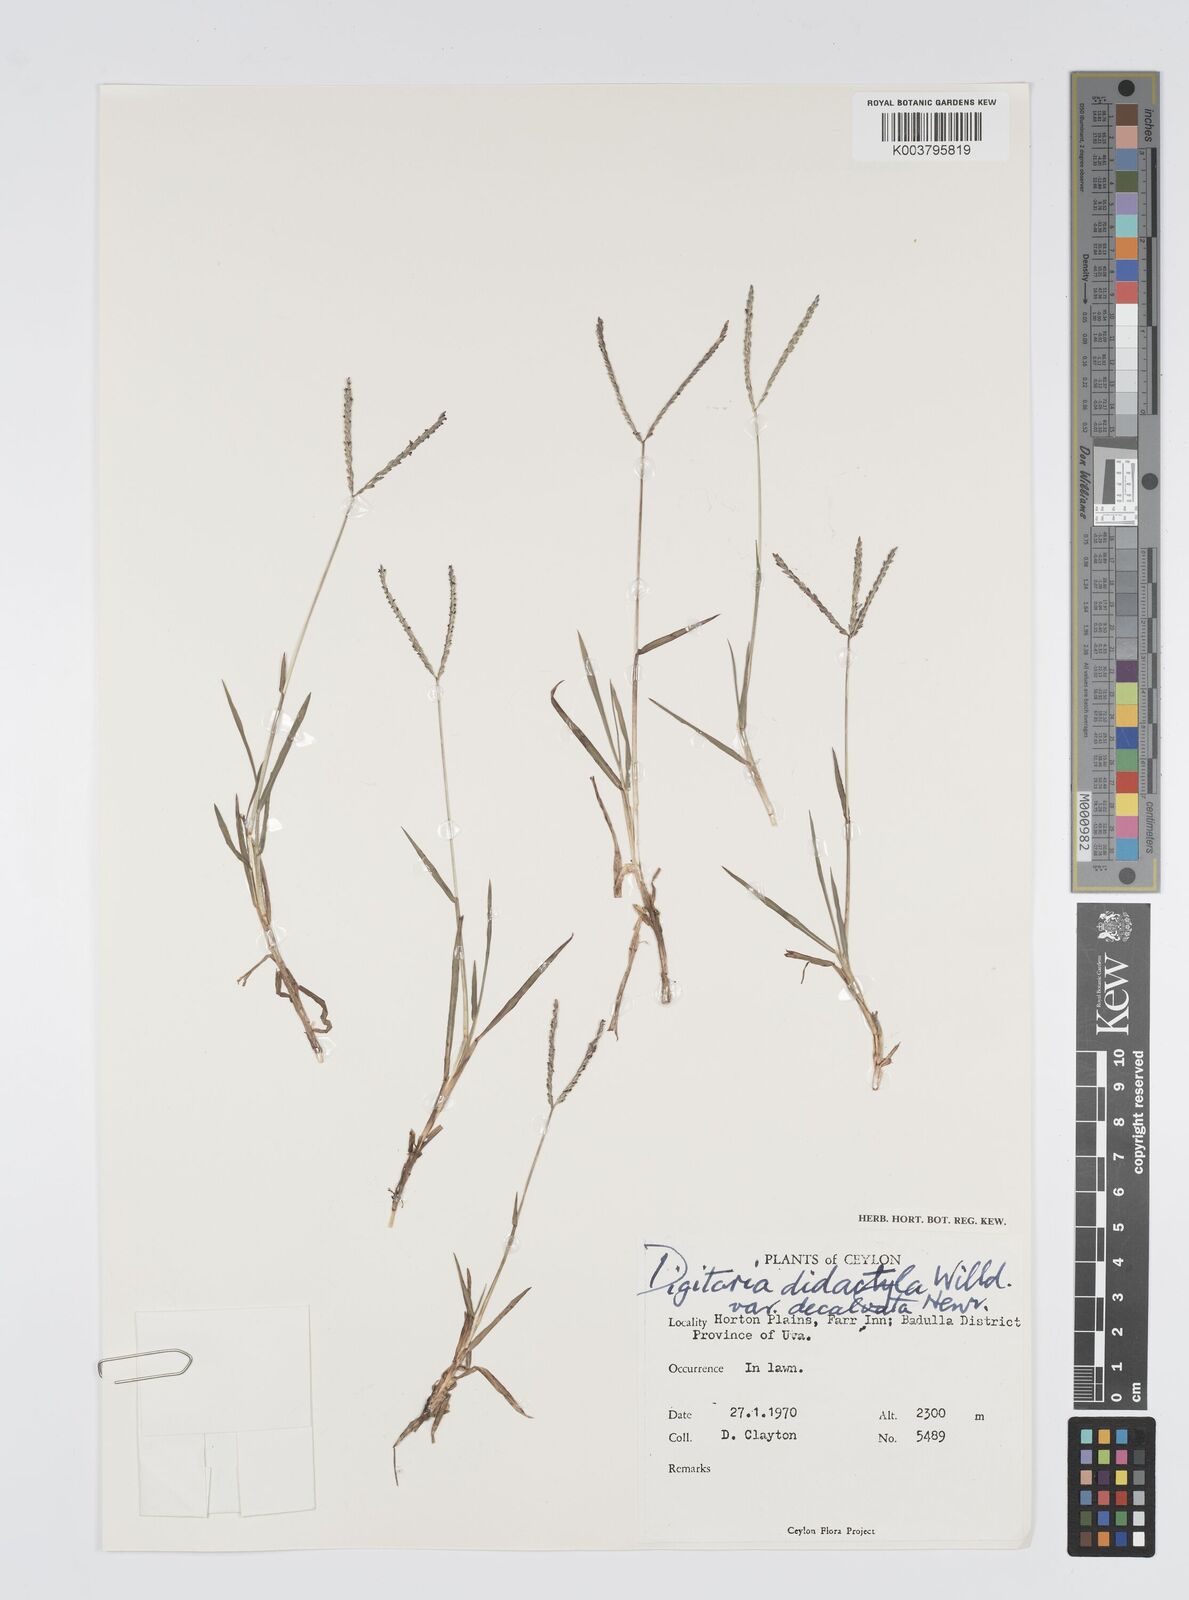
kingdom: Plantae
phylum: Tracheophyta
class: Liliopsida
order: Poales
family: Poaceae
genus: Digitaria
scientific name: Digitaria didactyla
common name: Blue couch
